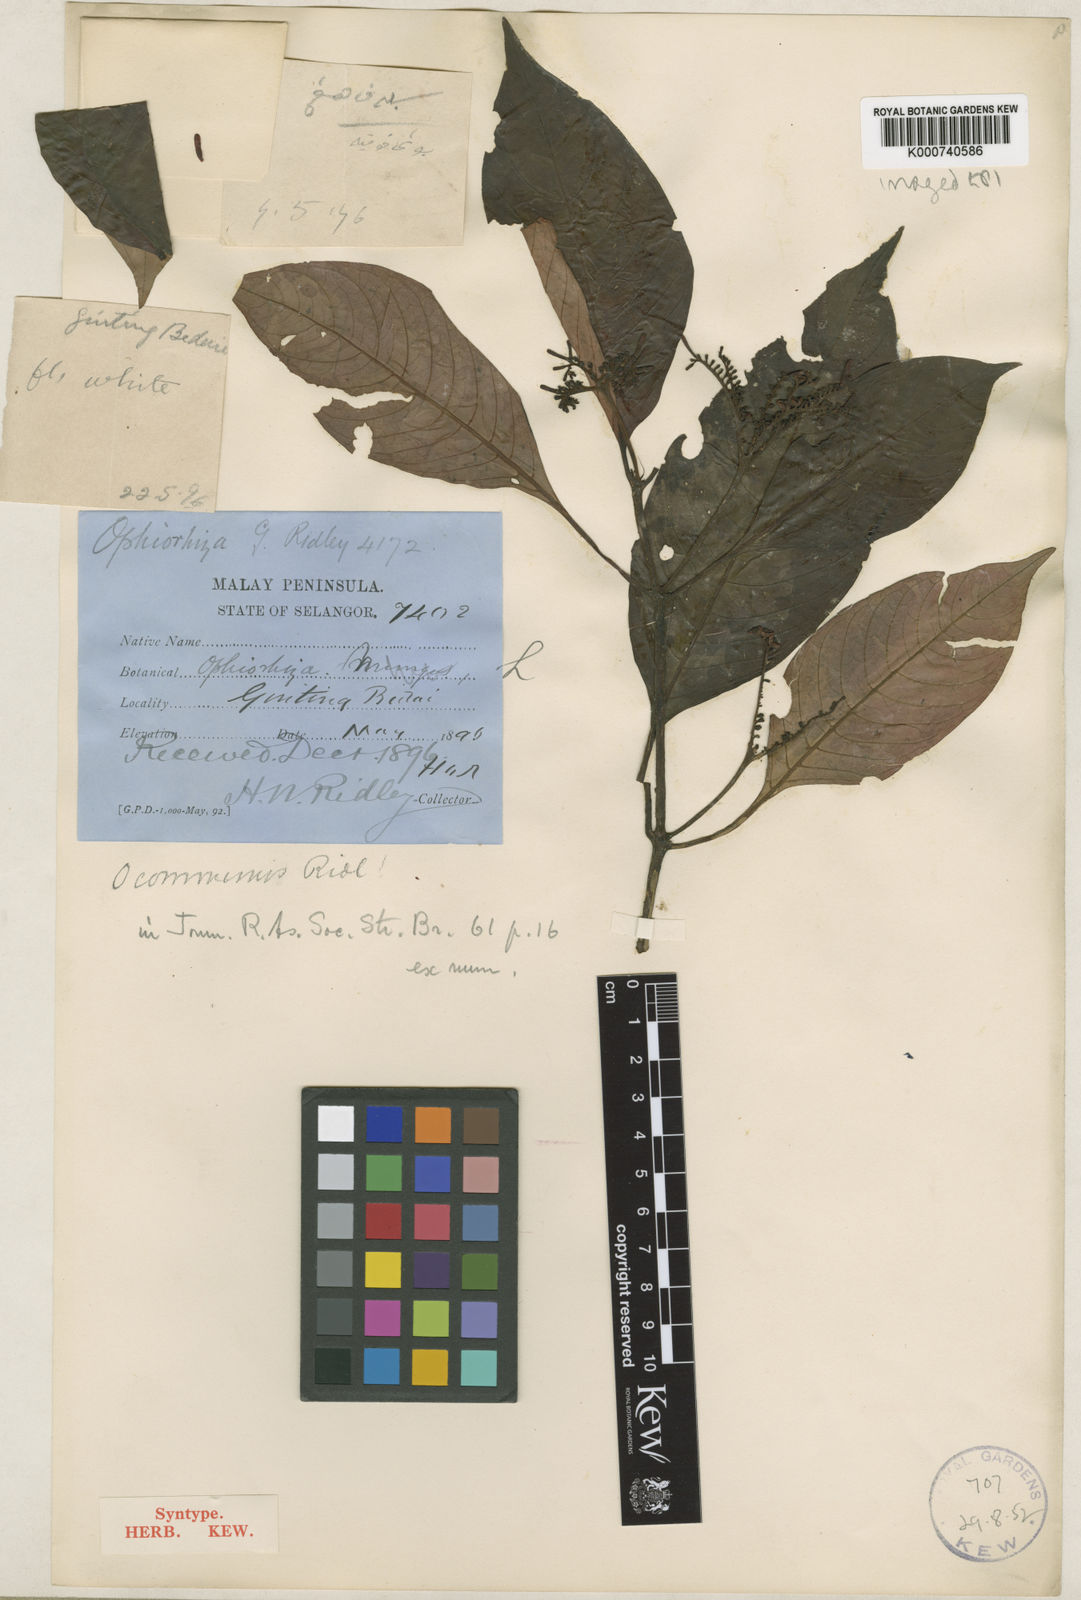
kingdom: Plantae
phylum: Tracheophyta
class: Magnoliopsida
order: Gentianales
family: Rubiaceae
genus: Ophiorrhiza
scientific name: Ophiorrhiza discolor
